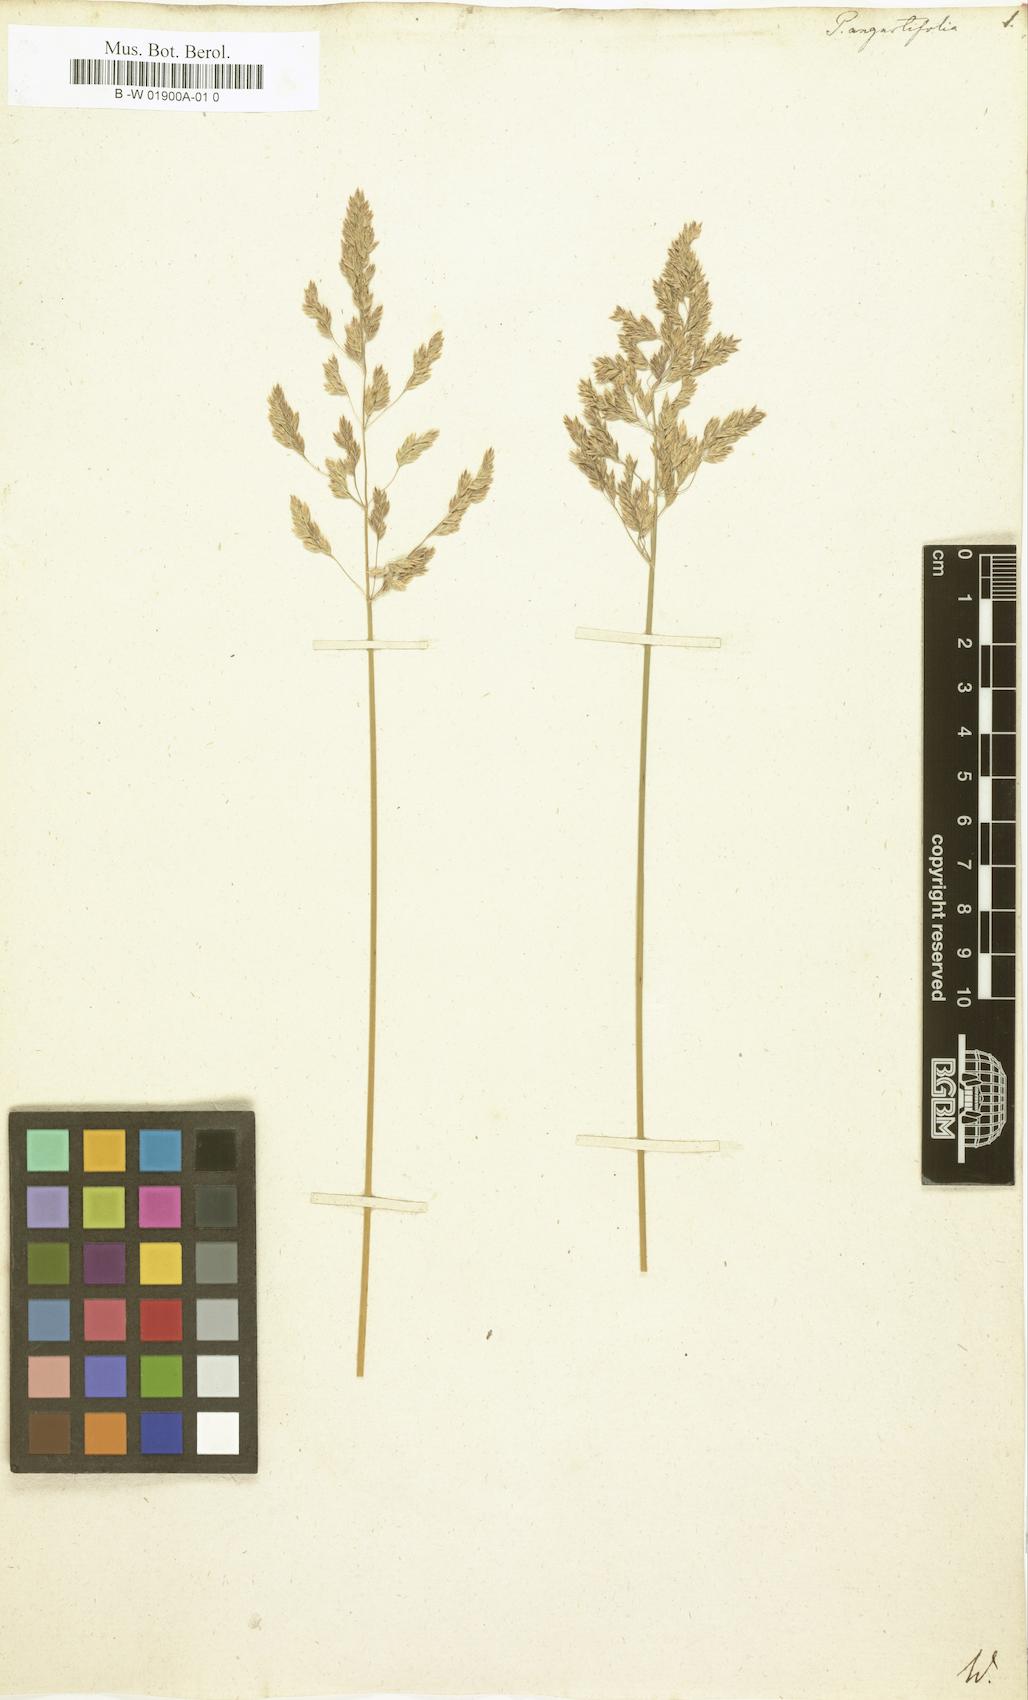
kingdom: Plantae
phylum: Tracheophyta
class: Liliopsida
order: Poales
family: Poaceae
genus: Poa
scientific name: Poa pratensis
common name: Kentucky bluegrass
